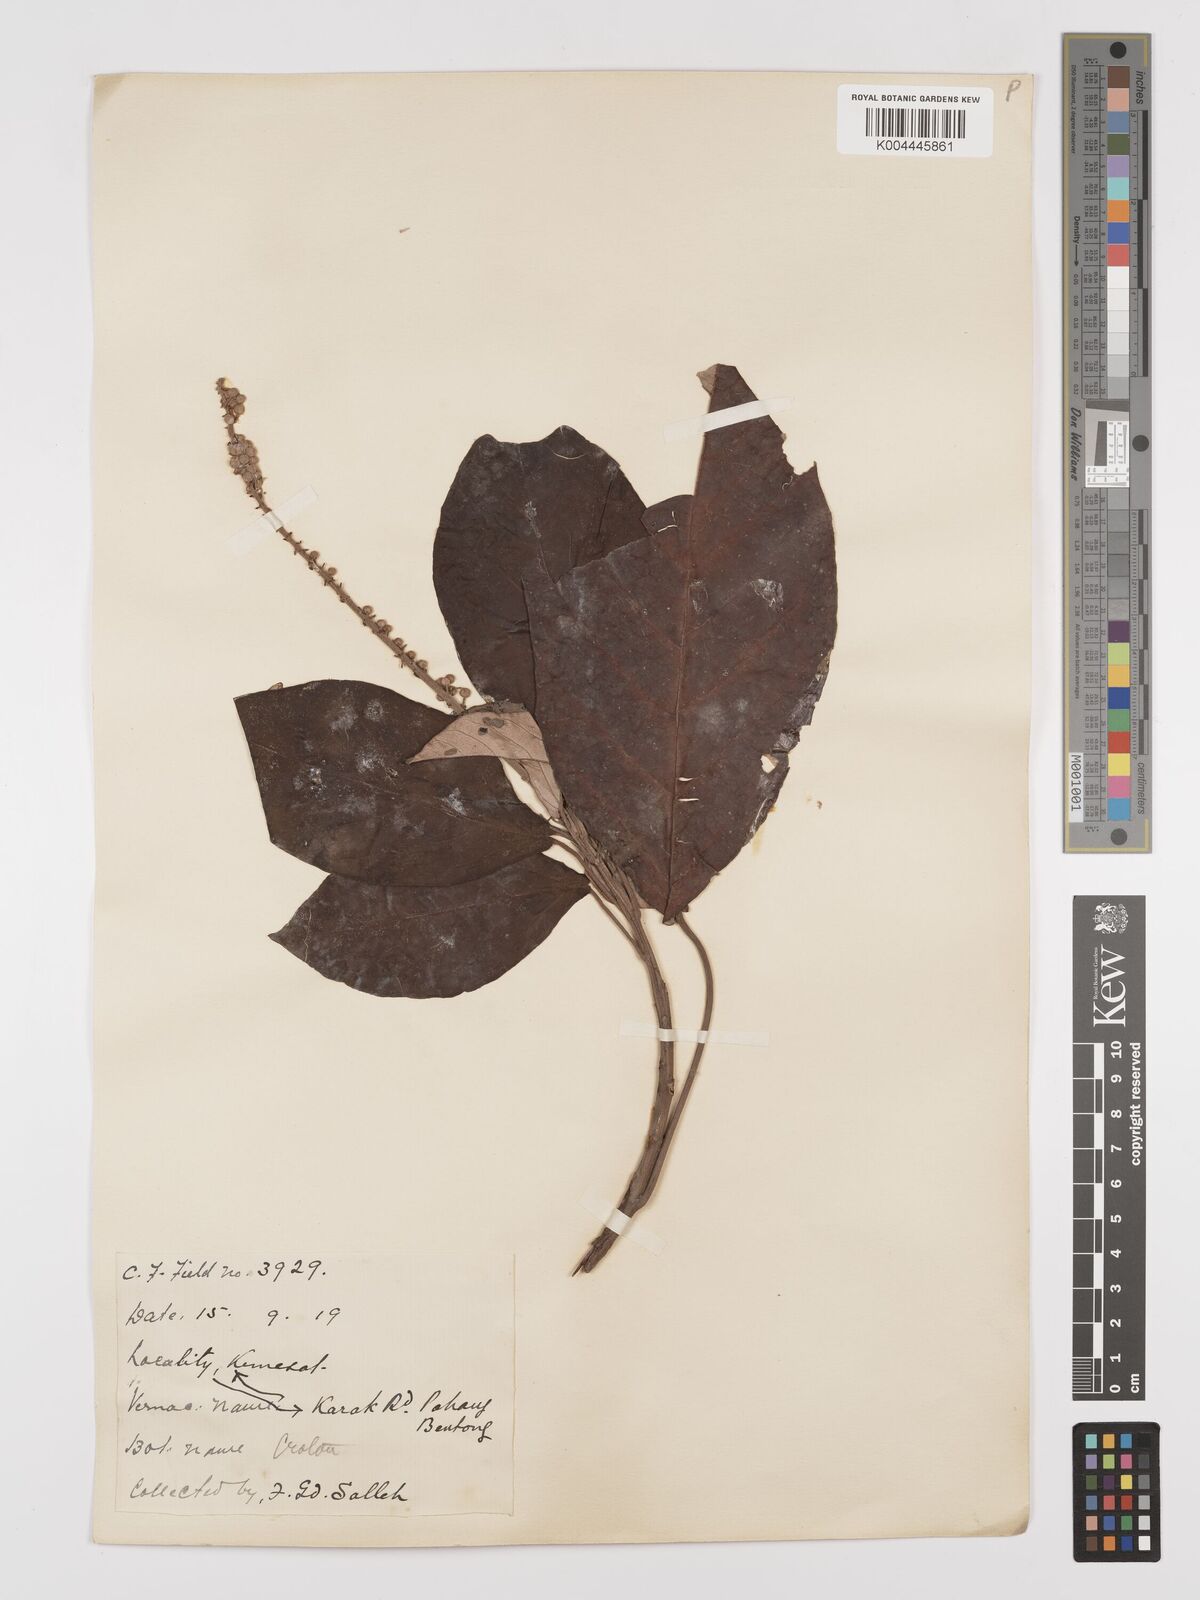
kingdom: Plantae
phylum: Tracheophyta
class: Magnoliopsida
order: Malpighiales
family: Euphorbiaceae
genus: Croton
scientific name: Croton argyratus
